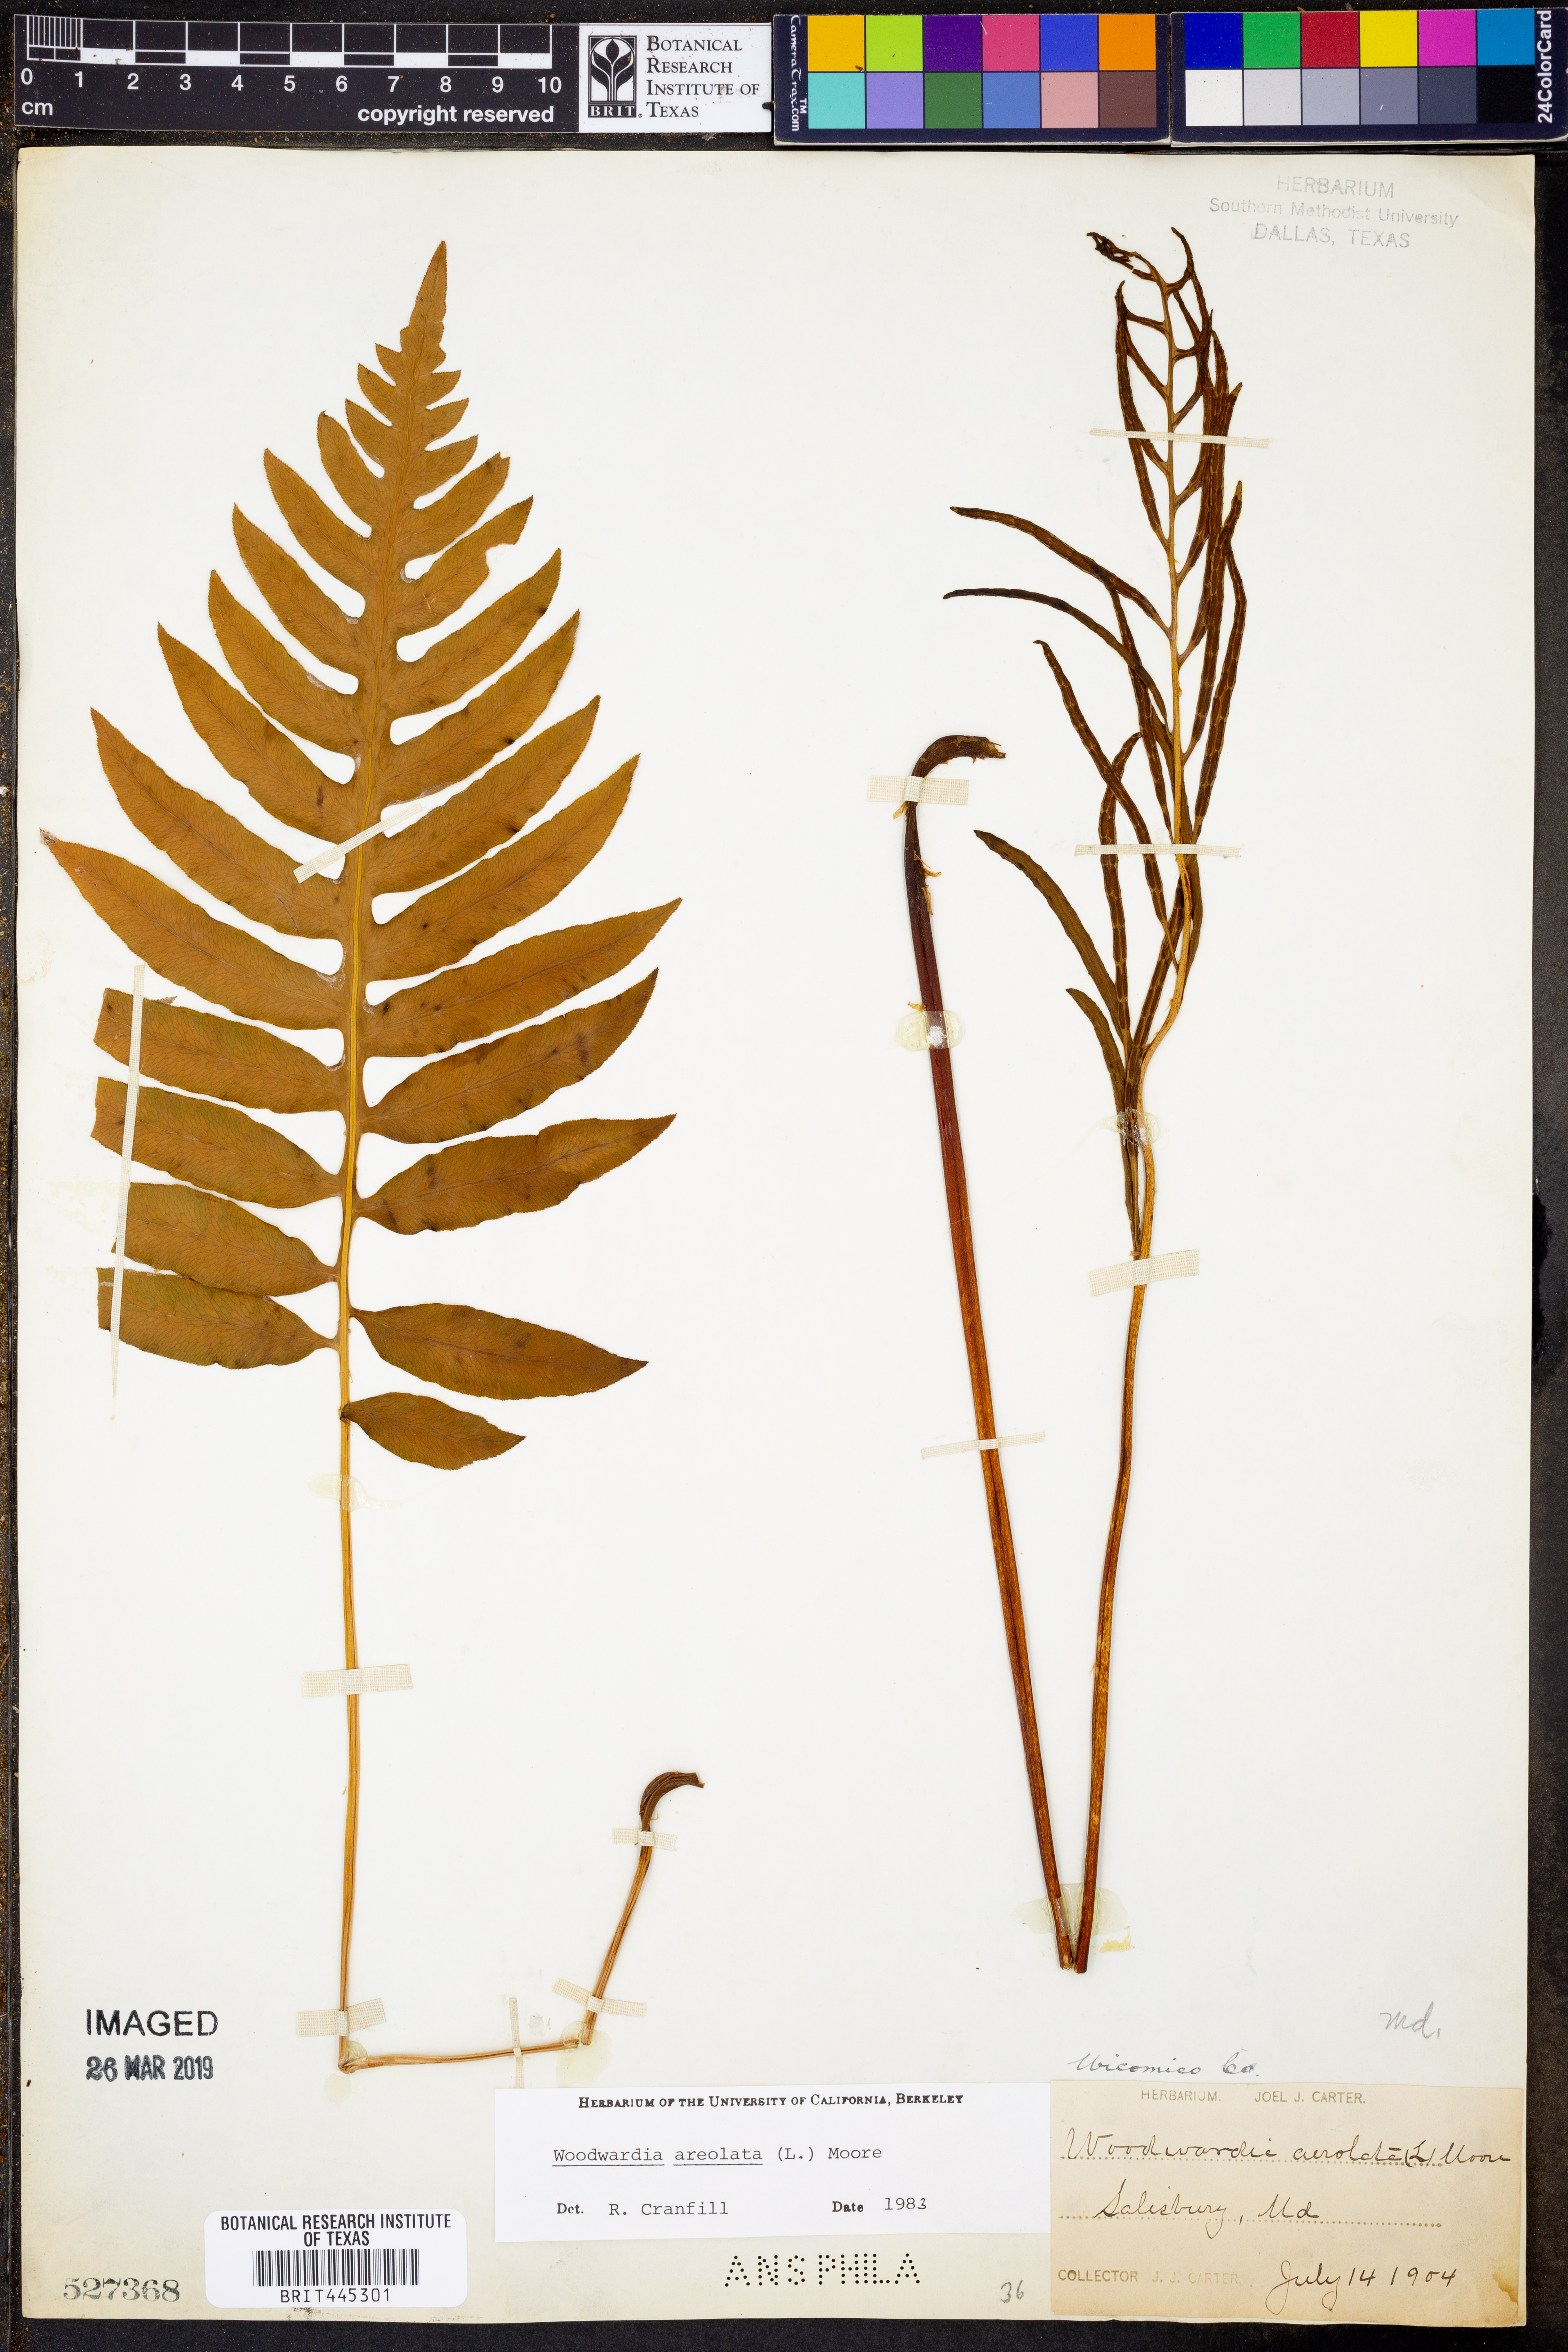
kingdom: Plantae
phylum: Tracheophyta
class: Polypodiopsida
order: Polypodiales
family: Blechnaceae
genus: Lorinseria
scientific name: Lorinseria areolata
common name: Dwarf chain fern
